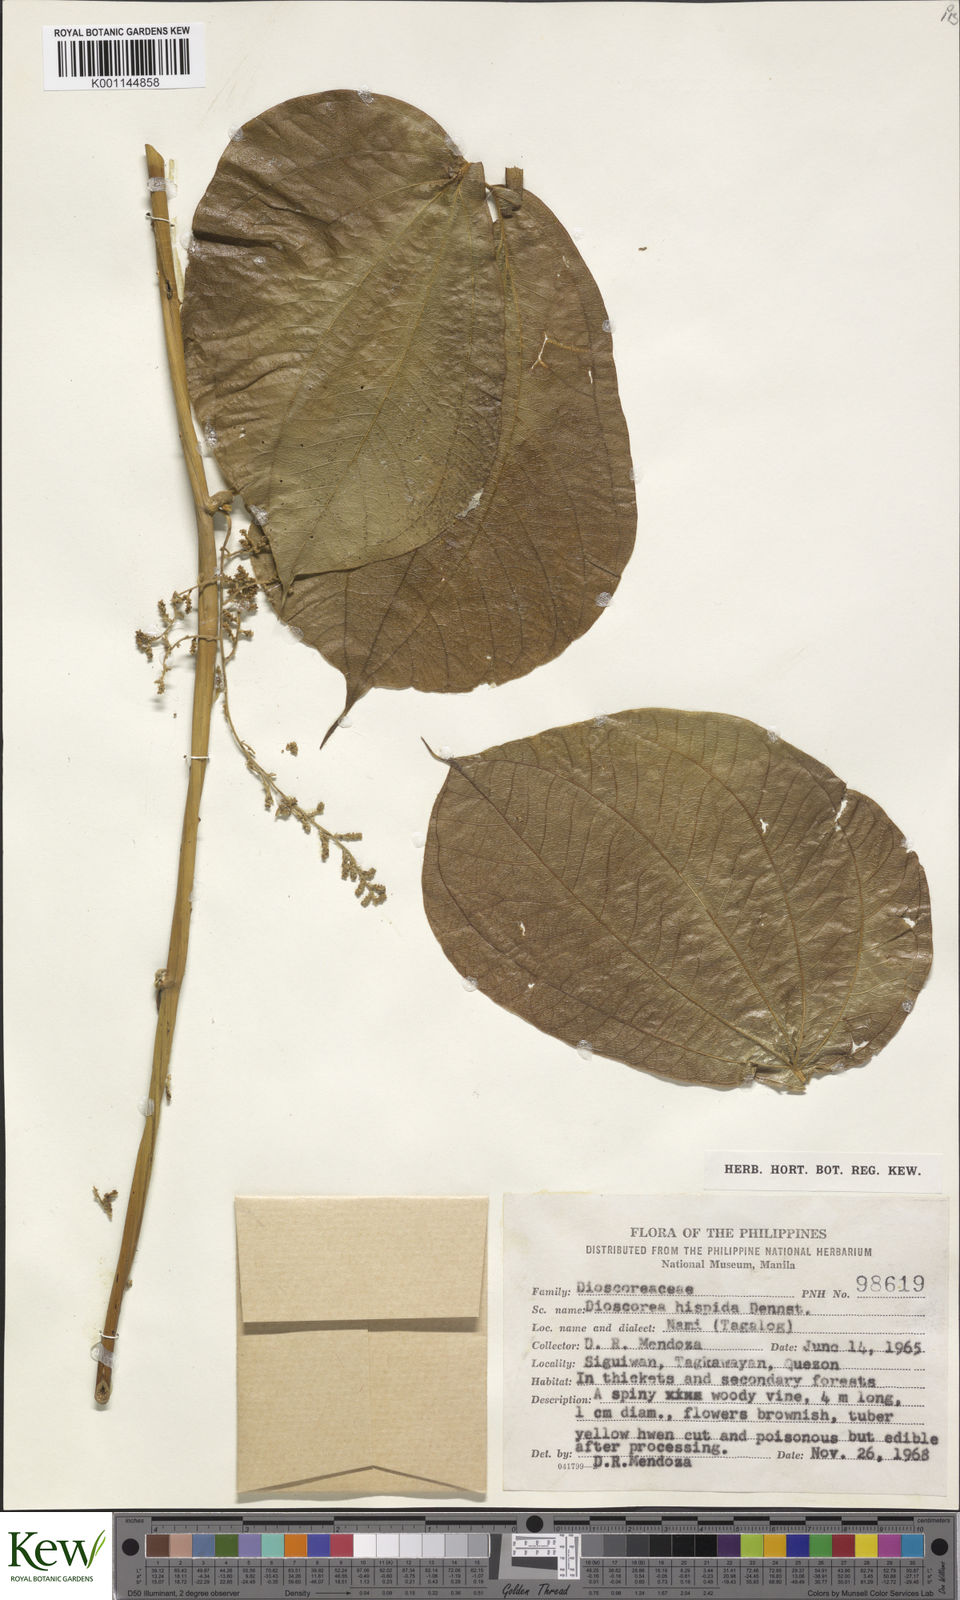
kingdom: Plantae
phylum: Tracheophyta
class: Liliopsida
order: Dioscoreales
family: Dioscoreaceae
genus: Dioscorea
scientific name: Dioscorea hispida
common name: Asiatic bitter yam
